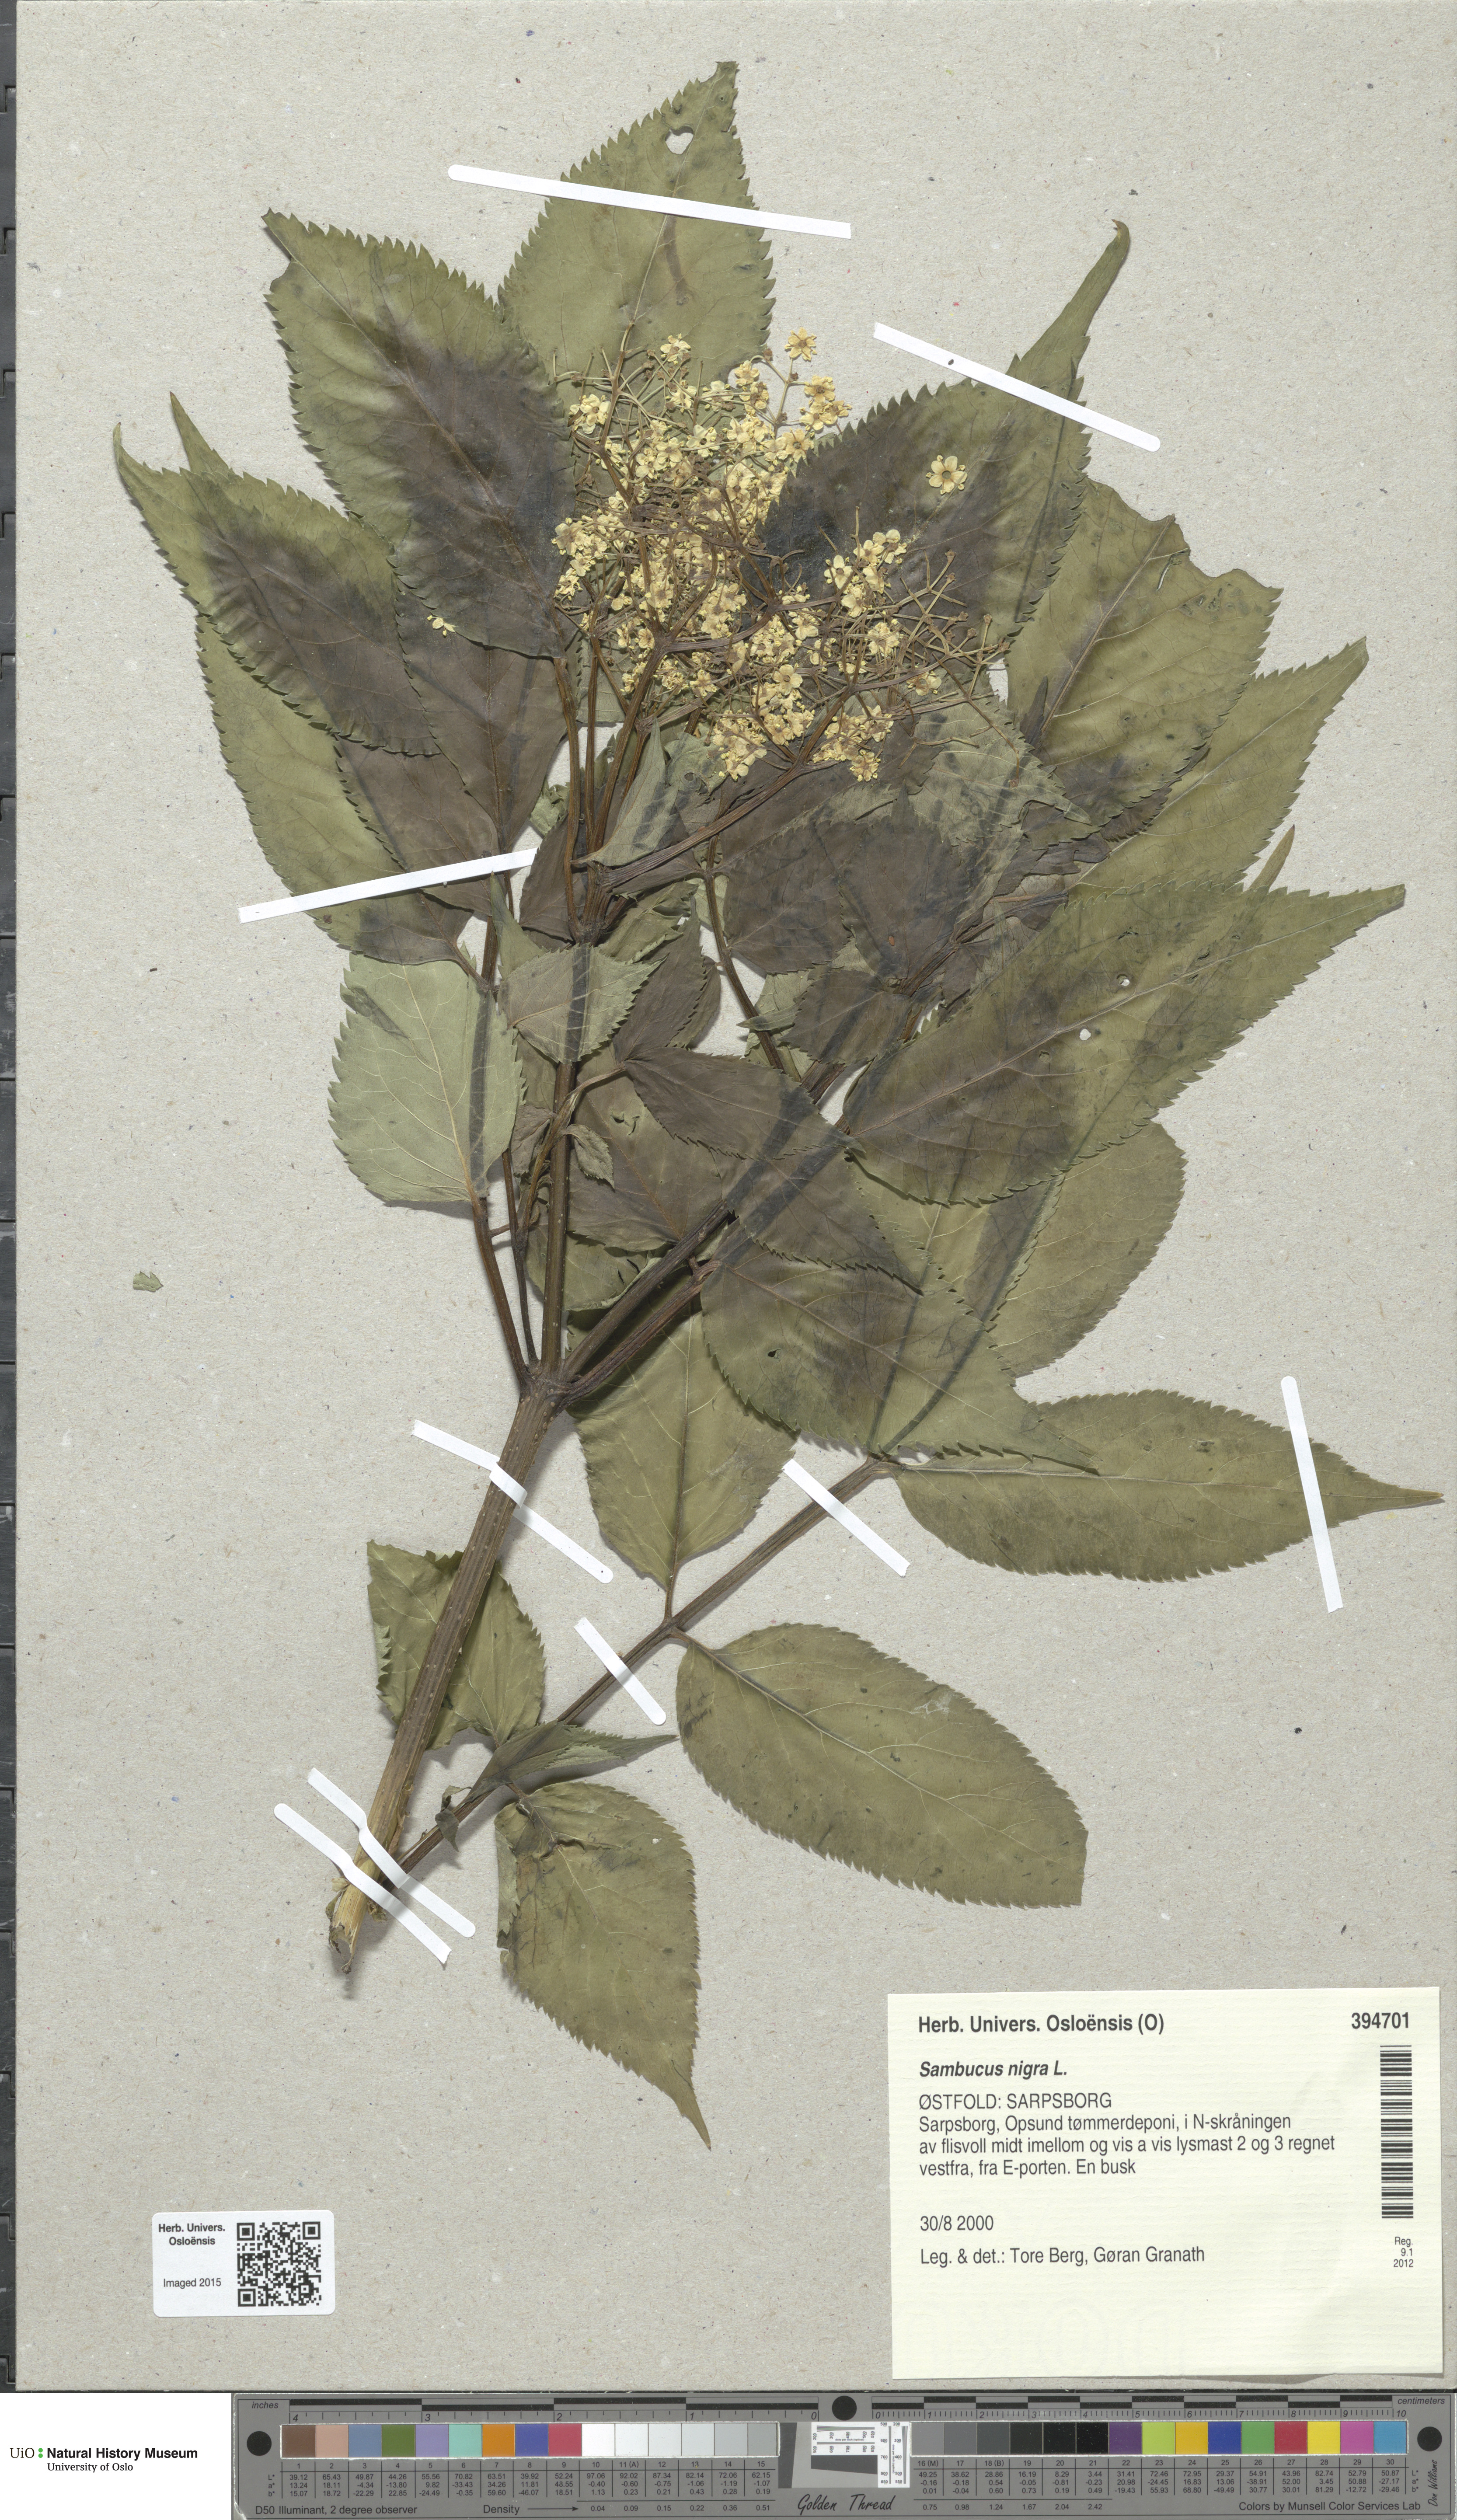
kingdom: Plantae
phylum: Tracheophyta
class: Magnoliopsida
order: Dipsacales
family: Viburnaceae
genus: Sambucus
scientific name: Sambucus nigra
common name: Elder
